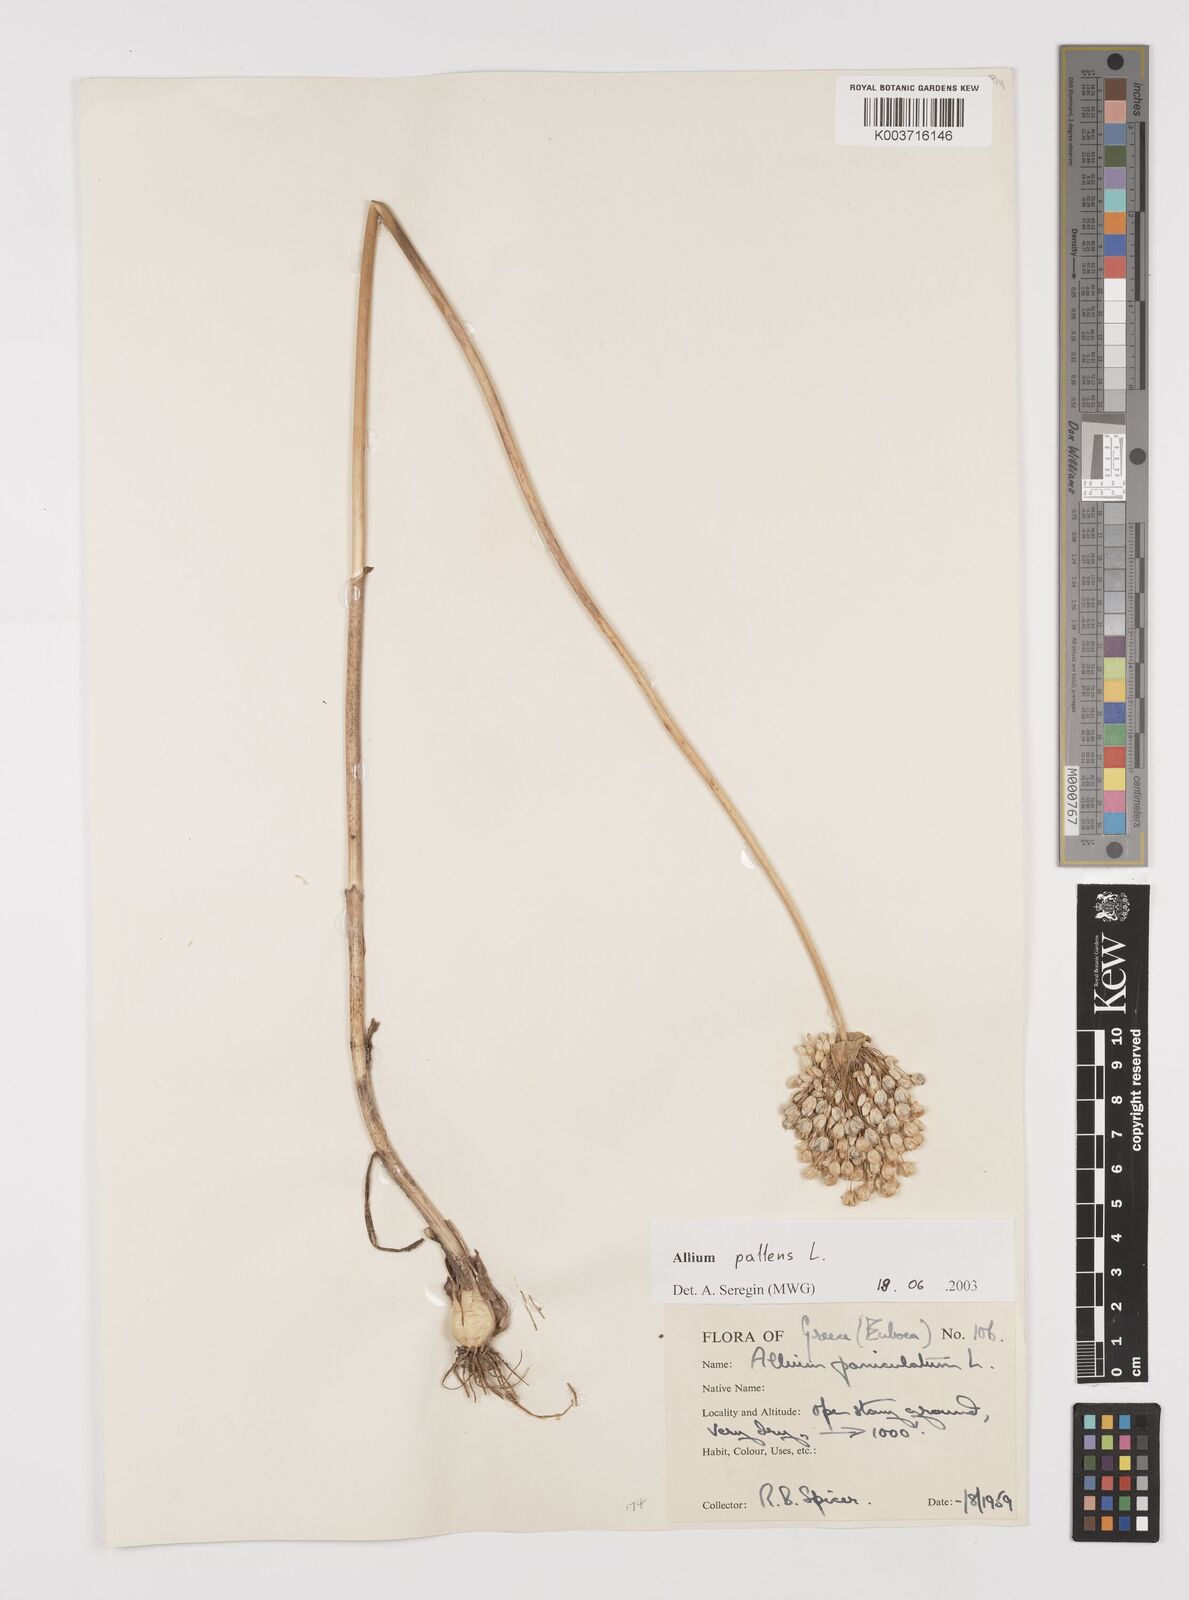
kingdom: Plantae
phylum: Tracheophyta
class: Liliopsida
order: Asparagales
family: Amaryllidaceae
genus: Allium
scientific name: Allium pallens
